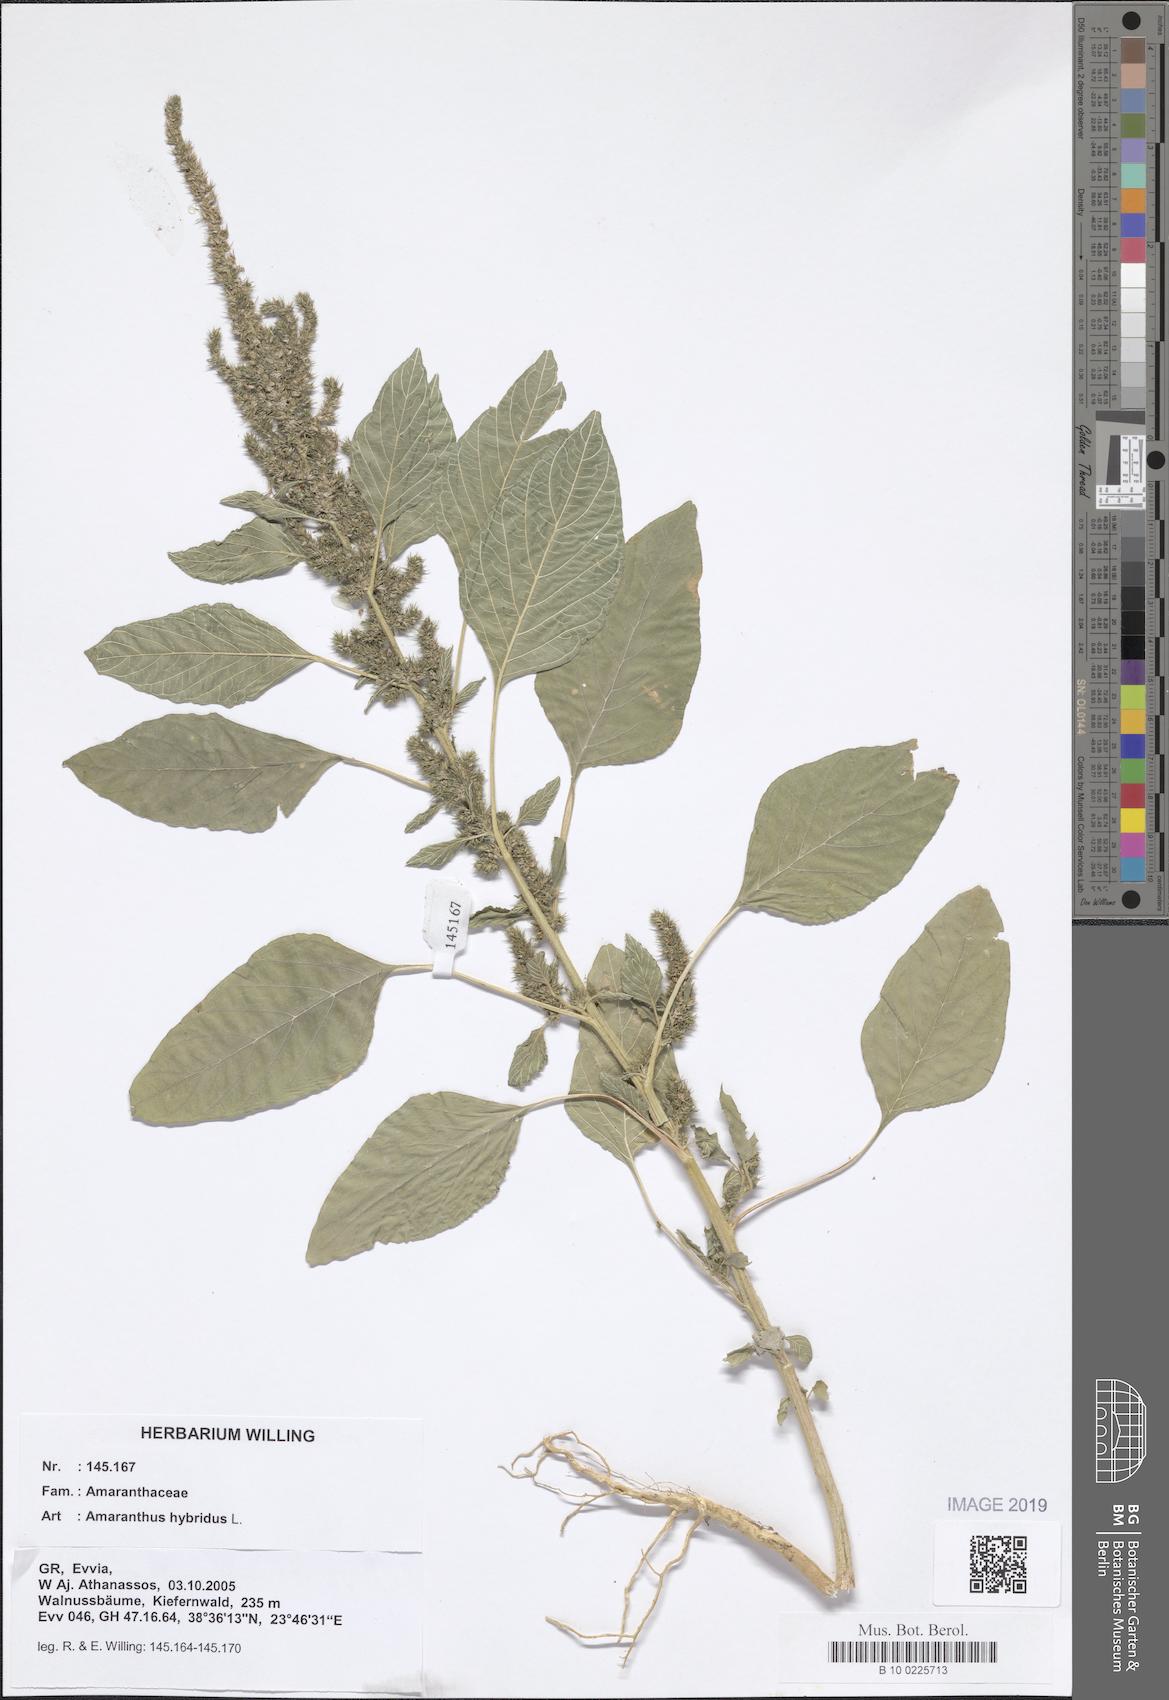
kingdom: Plantae
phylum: Tracheophyta
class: Magnoliopsida
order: Caryophyllales
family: Amaranthaceae
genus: Amaranthus
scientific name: Amaranthus hybridus
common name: Green amaranth
